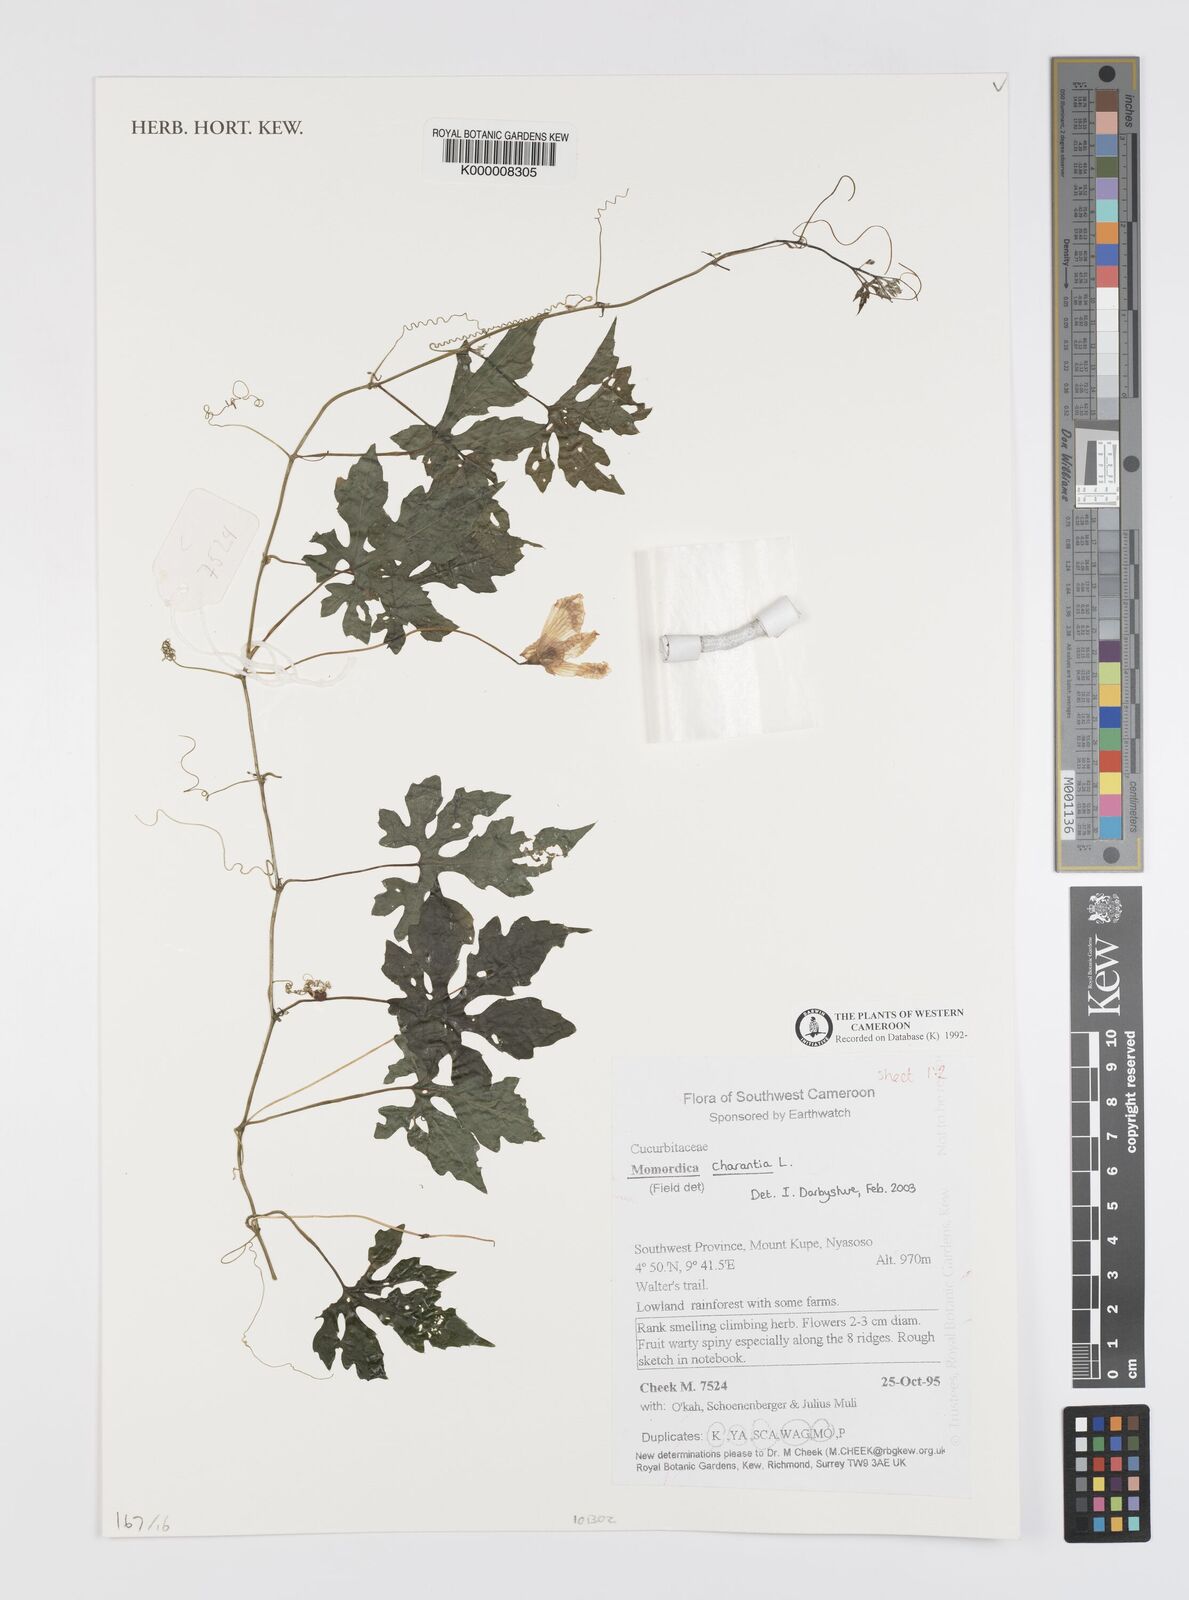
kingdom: Plantae
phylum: Tracheophyta
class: Magnoliopsida
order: Cucurbitales
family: Cucurbitaceae
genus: Momordica
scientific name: Momordica charantia
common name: Balsampear
